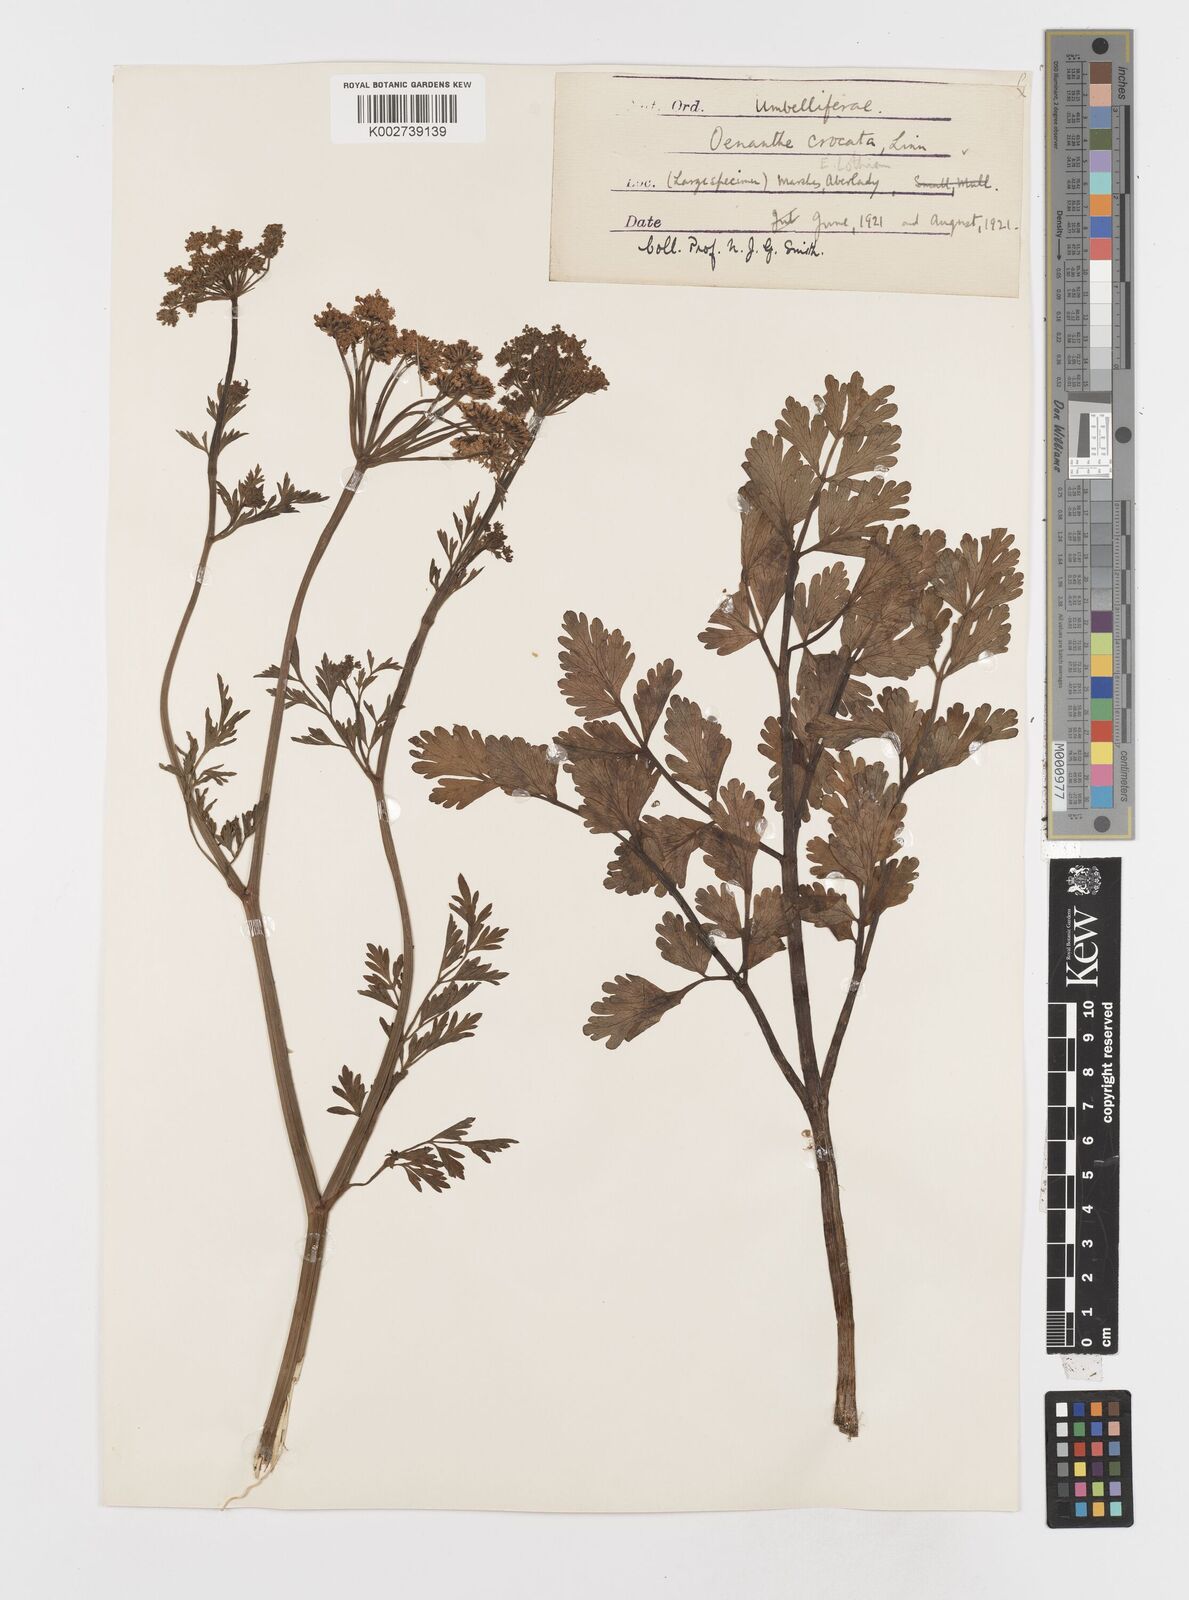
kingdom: Plantae
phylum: Tracheophyta
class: Magnoliopsida
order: Apiales
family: Apiaceae
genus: Oenanthe
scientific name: Oenanthe crocata
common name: Hemlock water-dropwort
